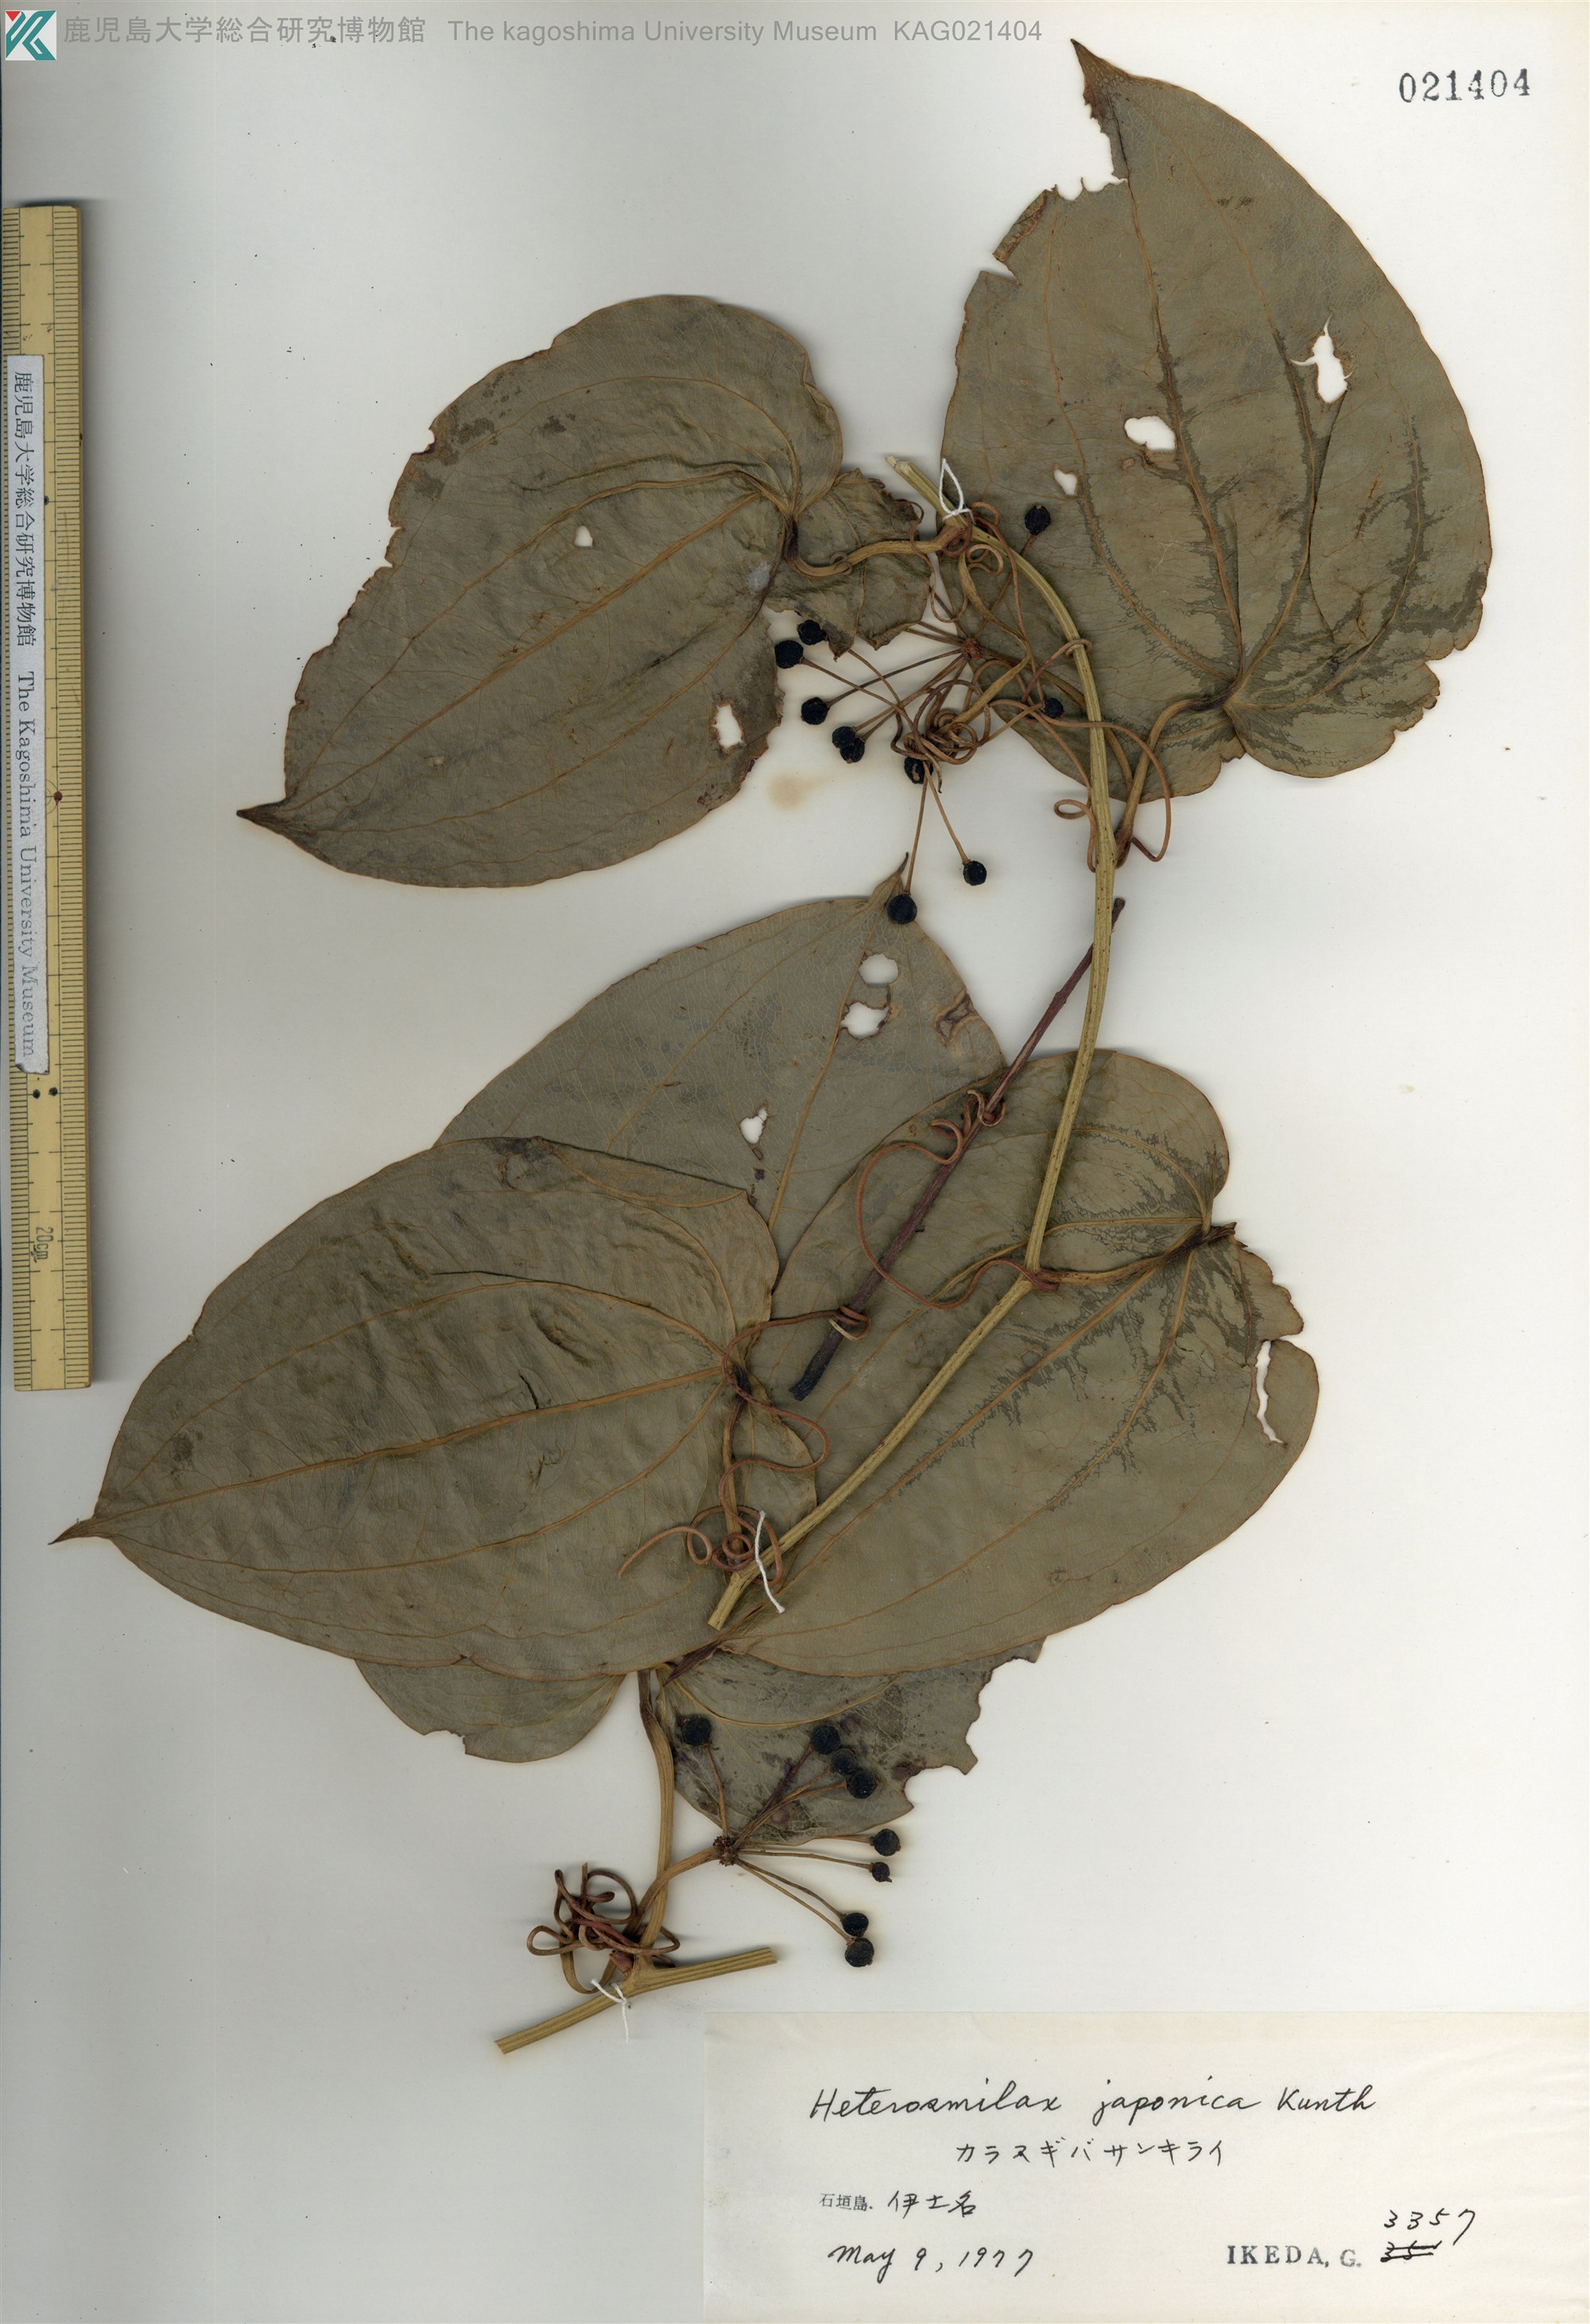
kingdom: Plantae
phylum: Tracheophyta
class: Liliopsida
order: Liliales
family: Smilacaceae
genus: Smilax
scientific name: Smilax insularis
